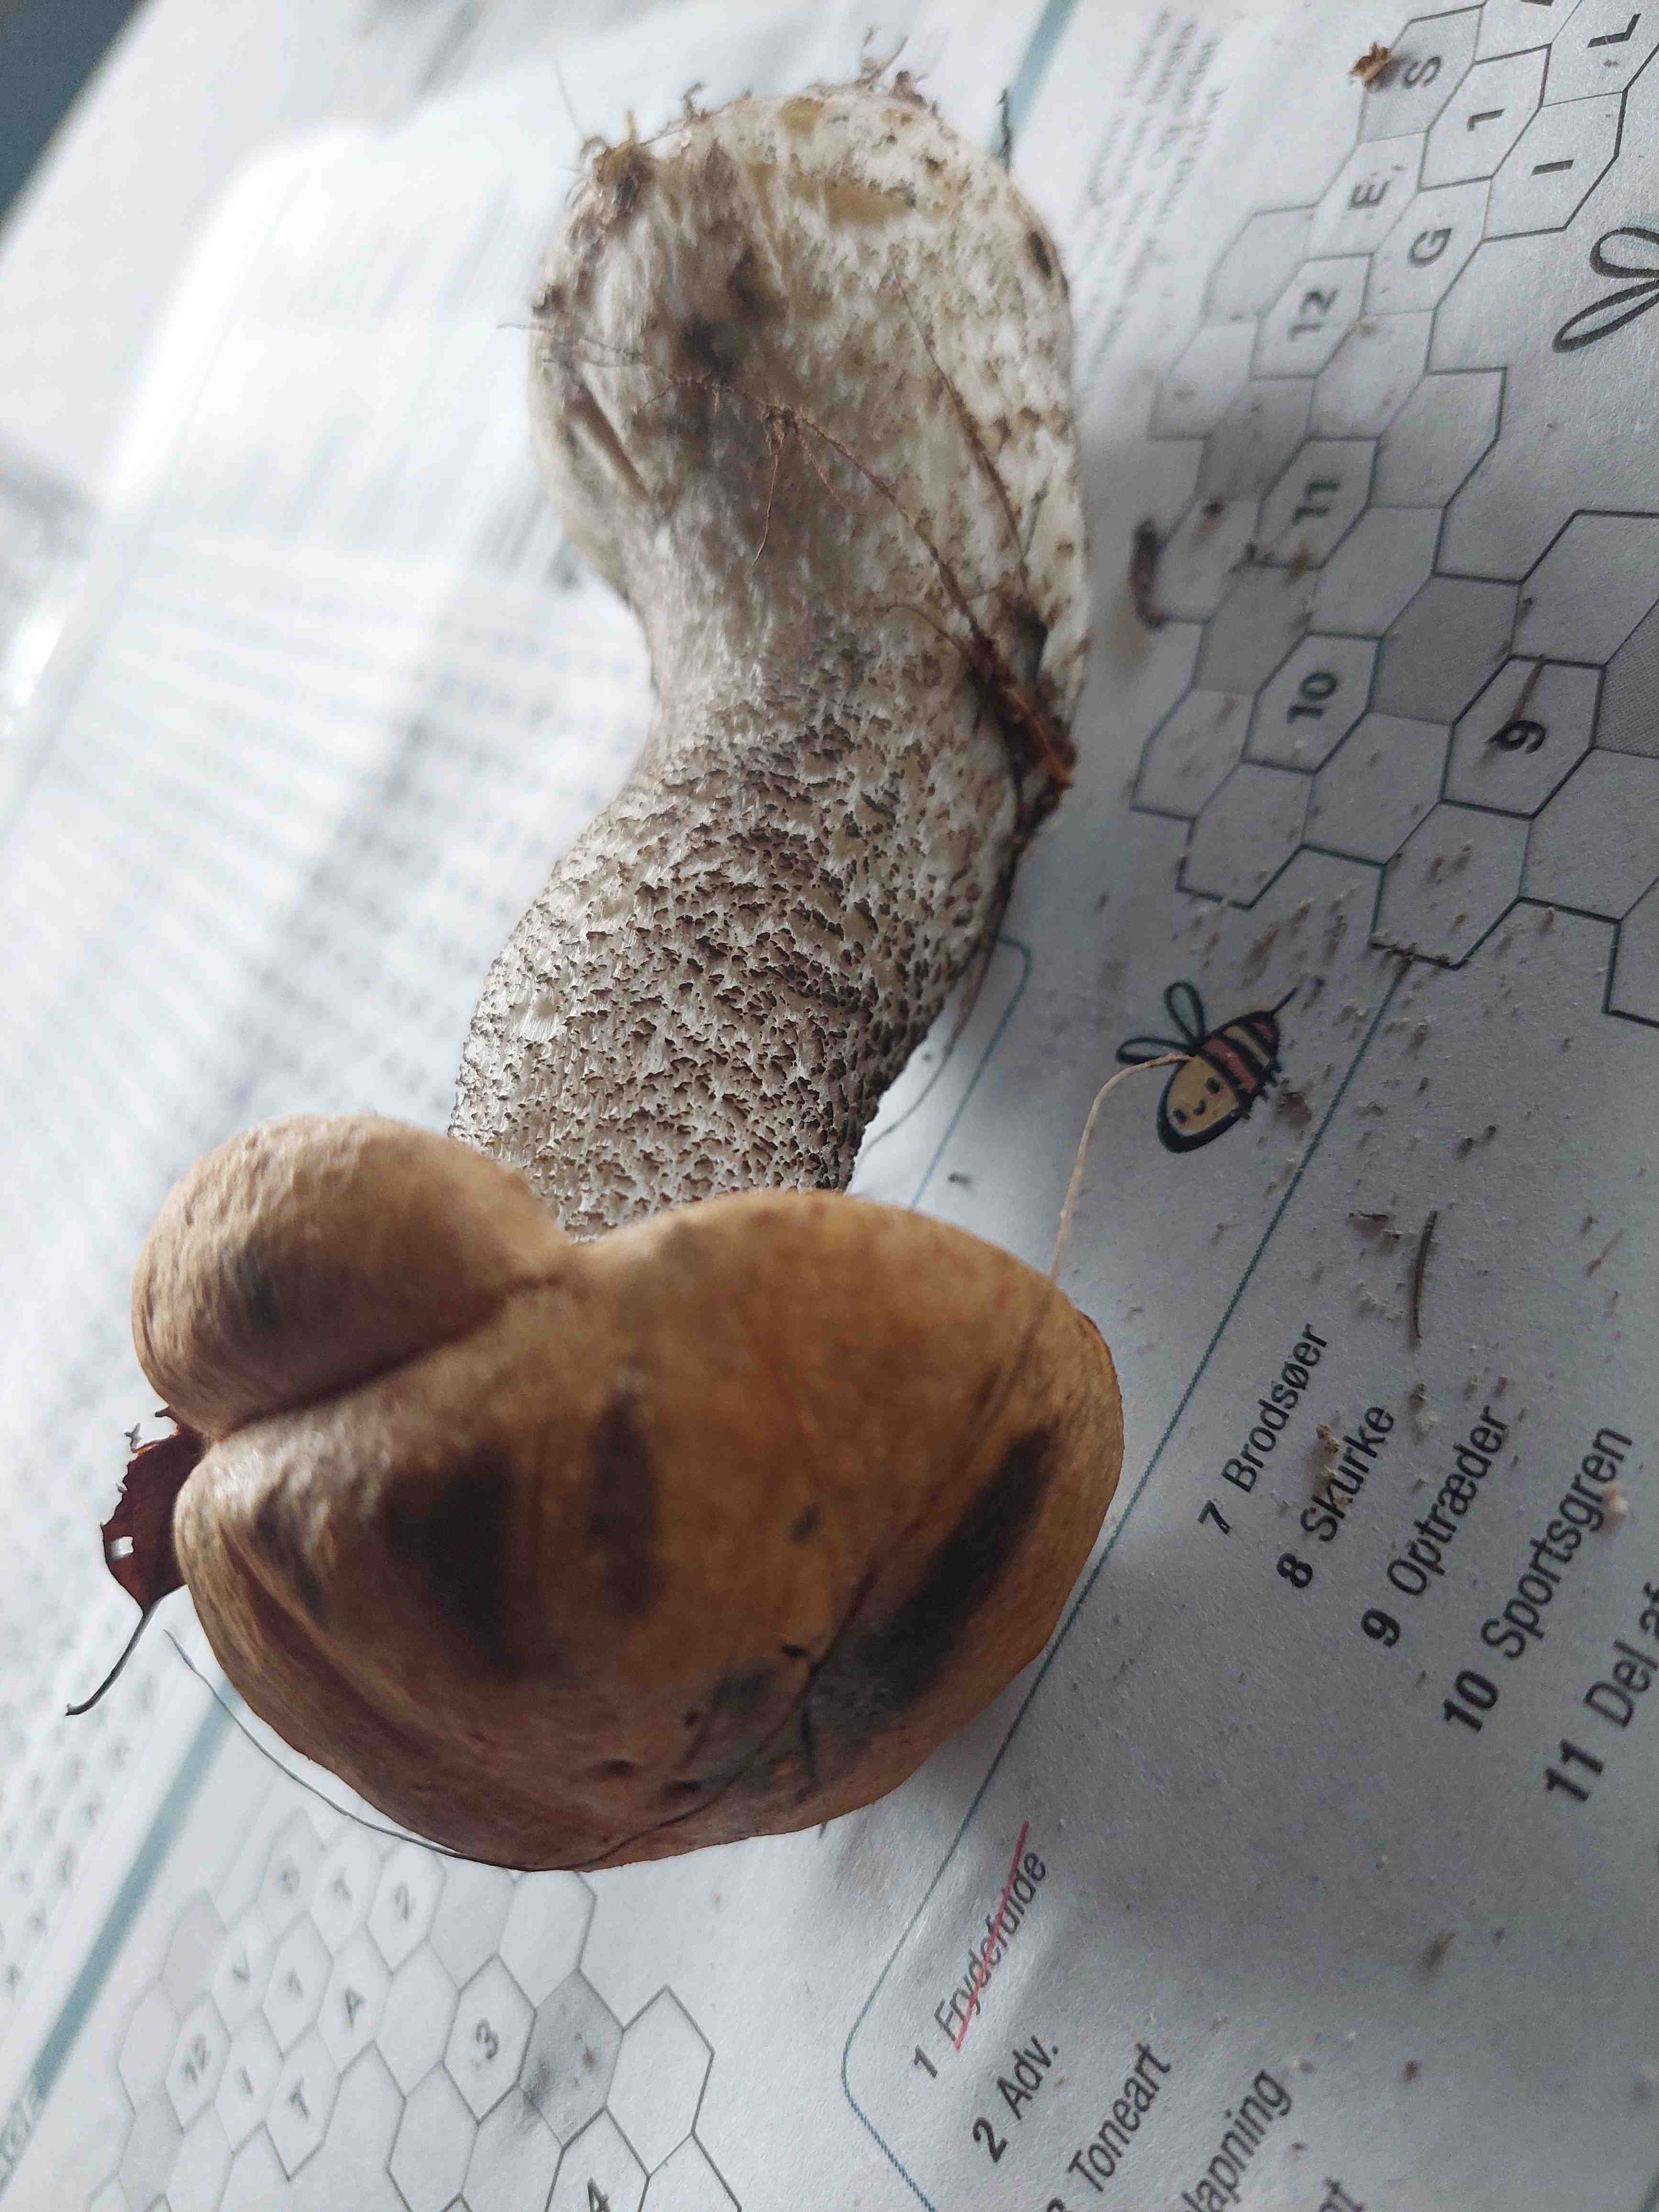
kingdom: Fungi
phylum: Basidiomycota
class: Agaricomycetes
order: Boletales
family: Boletaceae
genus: Leccinum
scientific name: Leccinum versipelle
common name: orange skælrørhat
